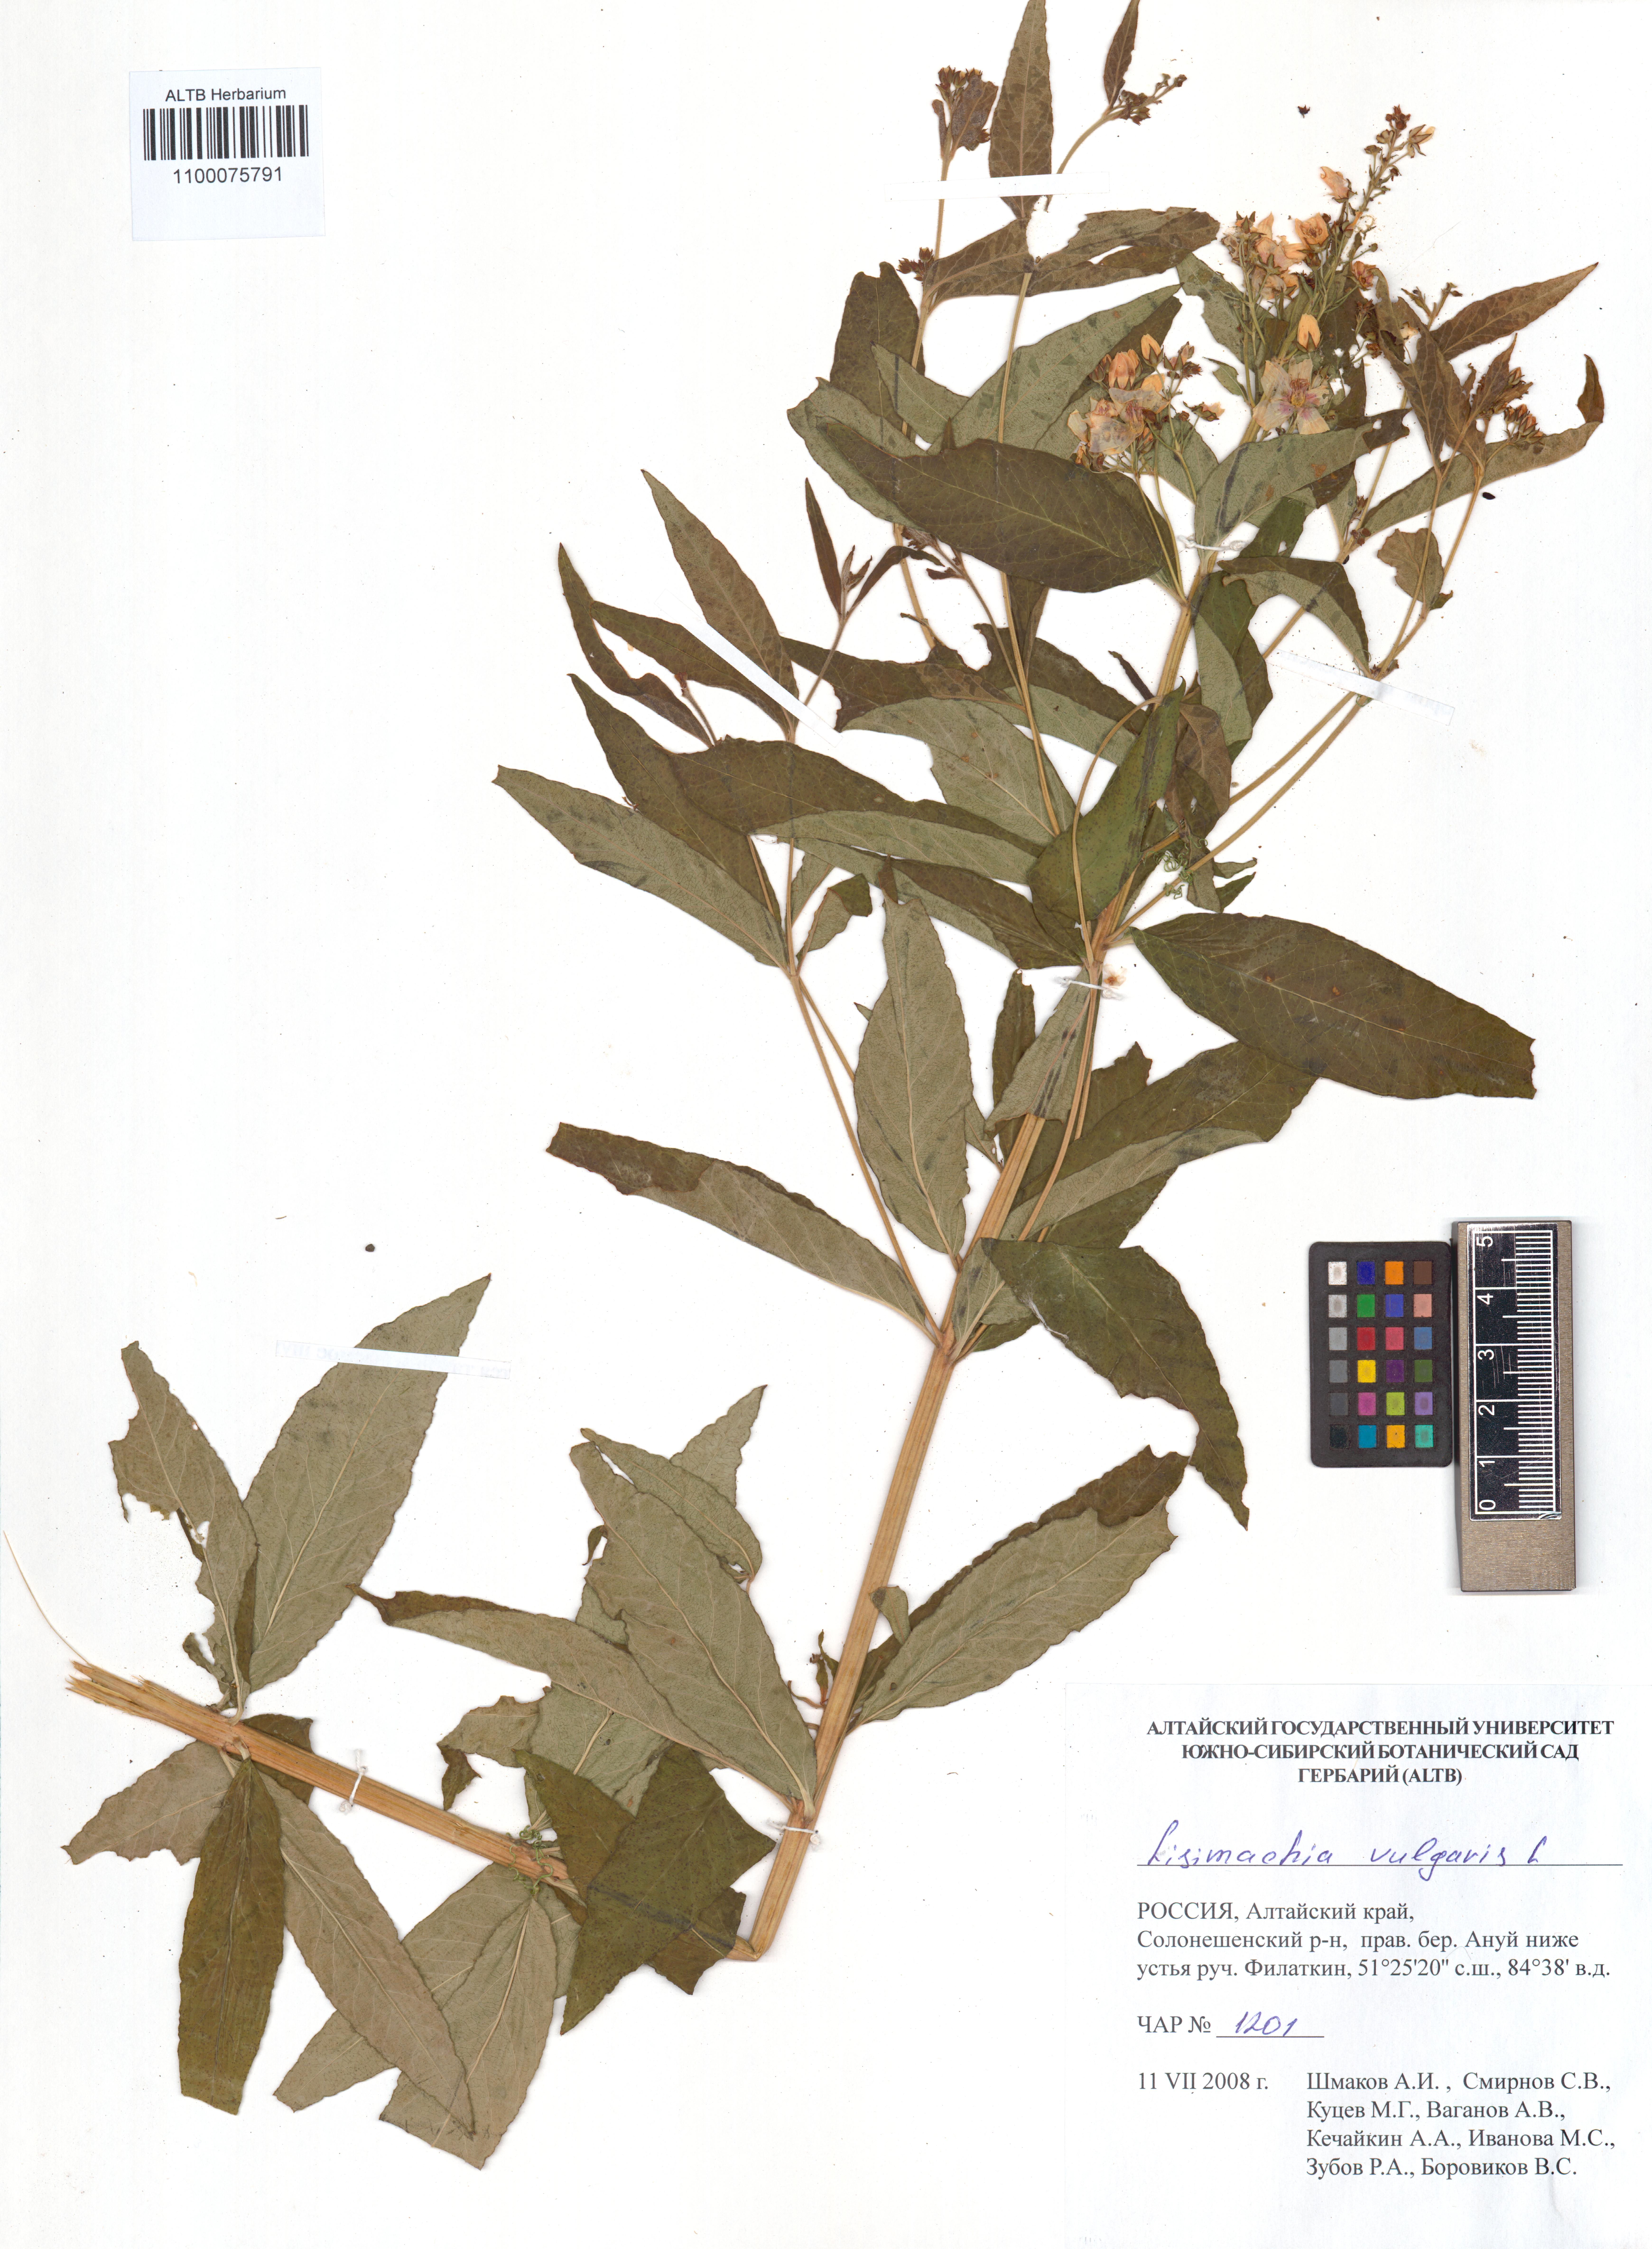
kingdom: Plantae
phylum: Tracheophyta
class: Magnoliopsida
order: Ericales
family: Primulaceae
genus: Lysimachia
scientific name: Lysimachia vulgaris
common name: Yellow loosestrife
